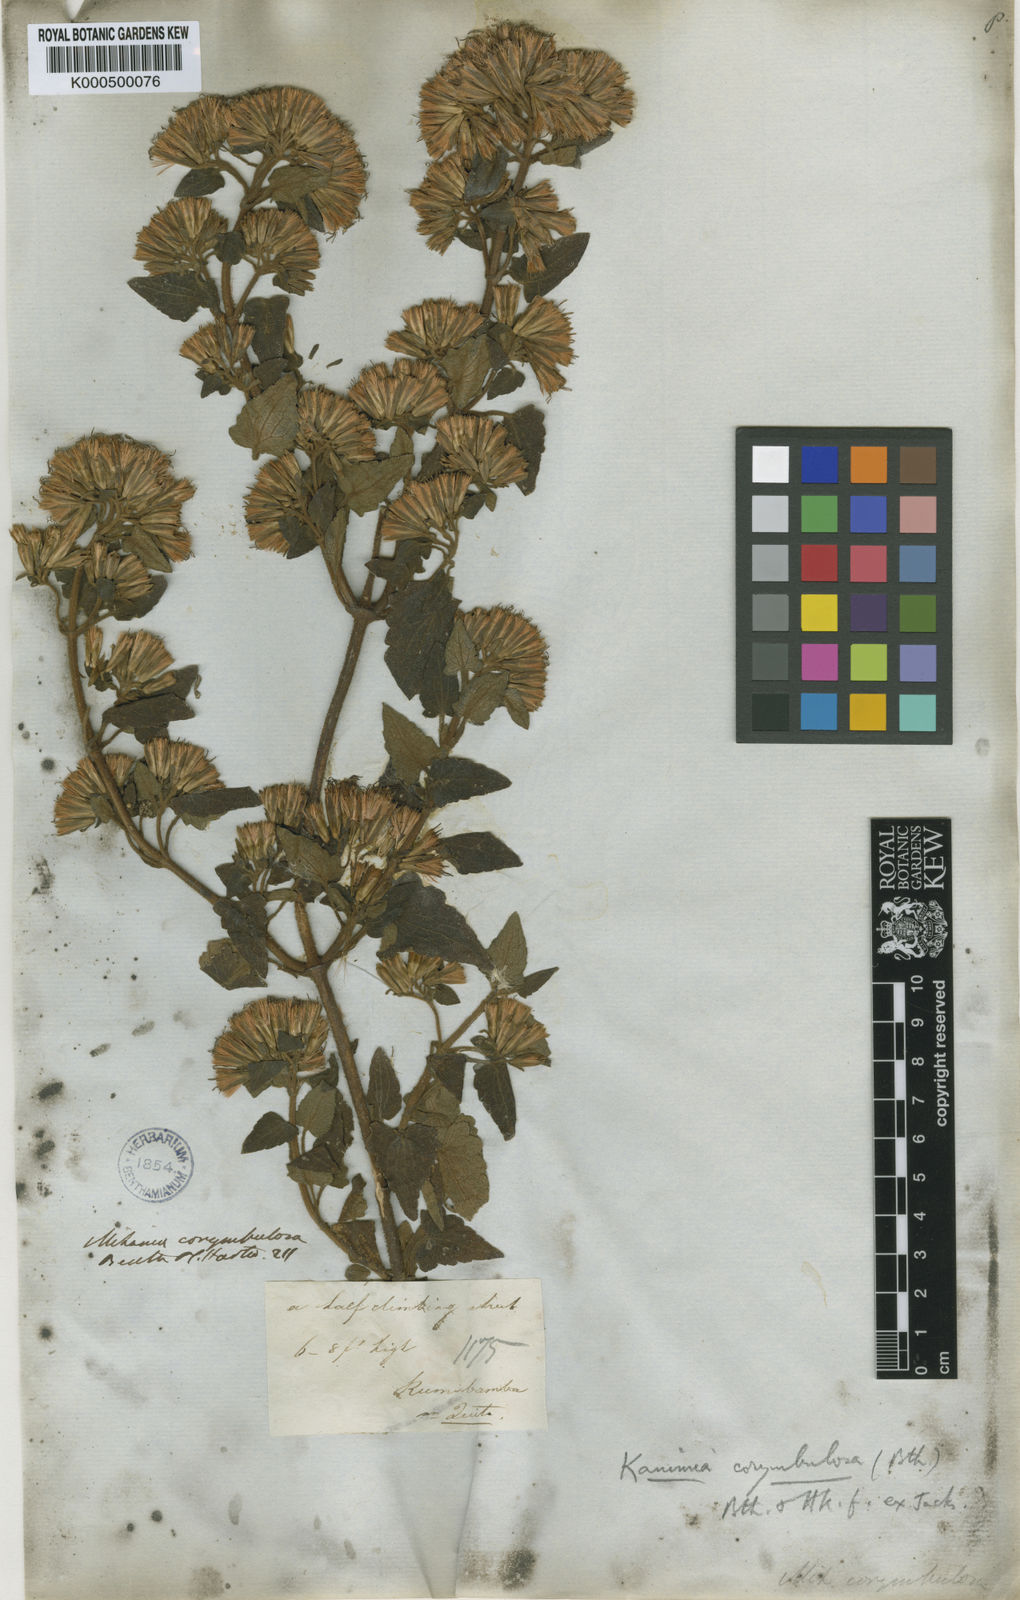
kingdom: Plantae
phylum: Tracheophyta
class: Magnoliopsida
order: Asterales
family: Asteraceae
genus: Mikania
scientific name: Mikania corymbulosa
